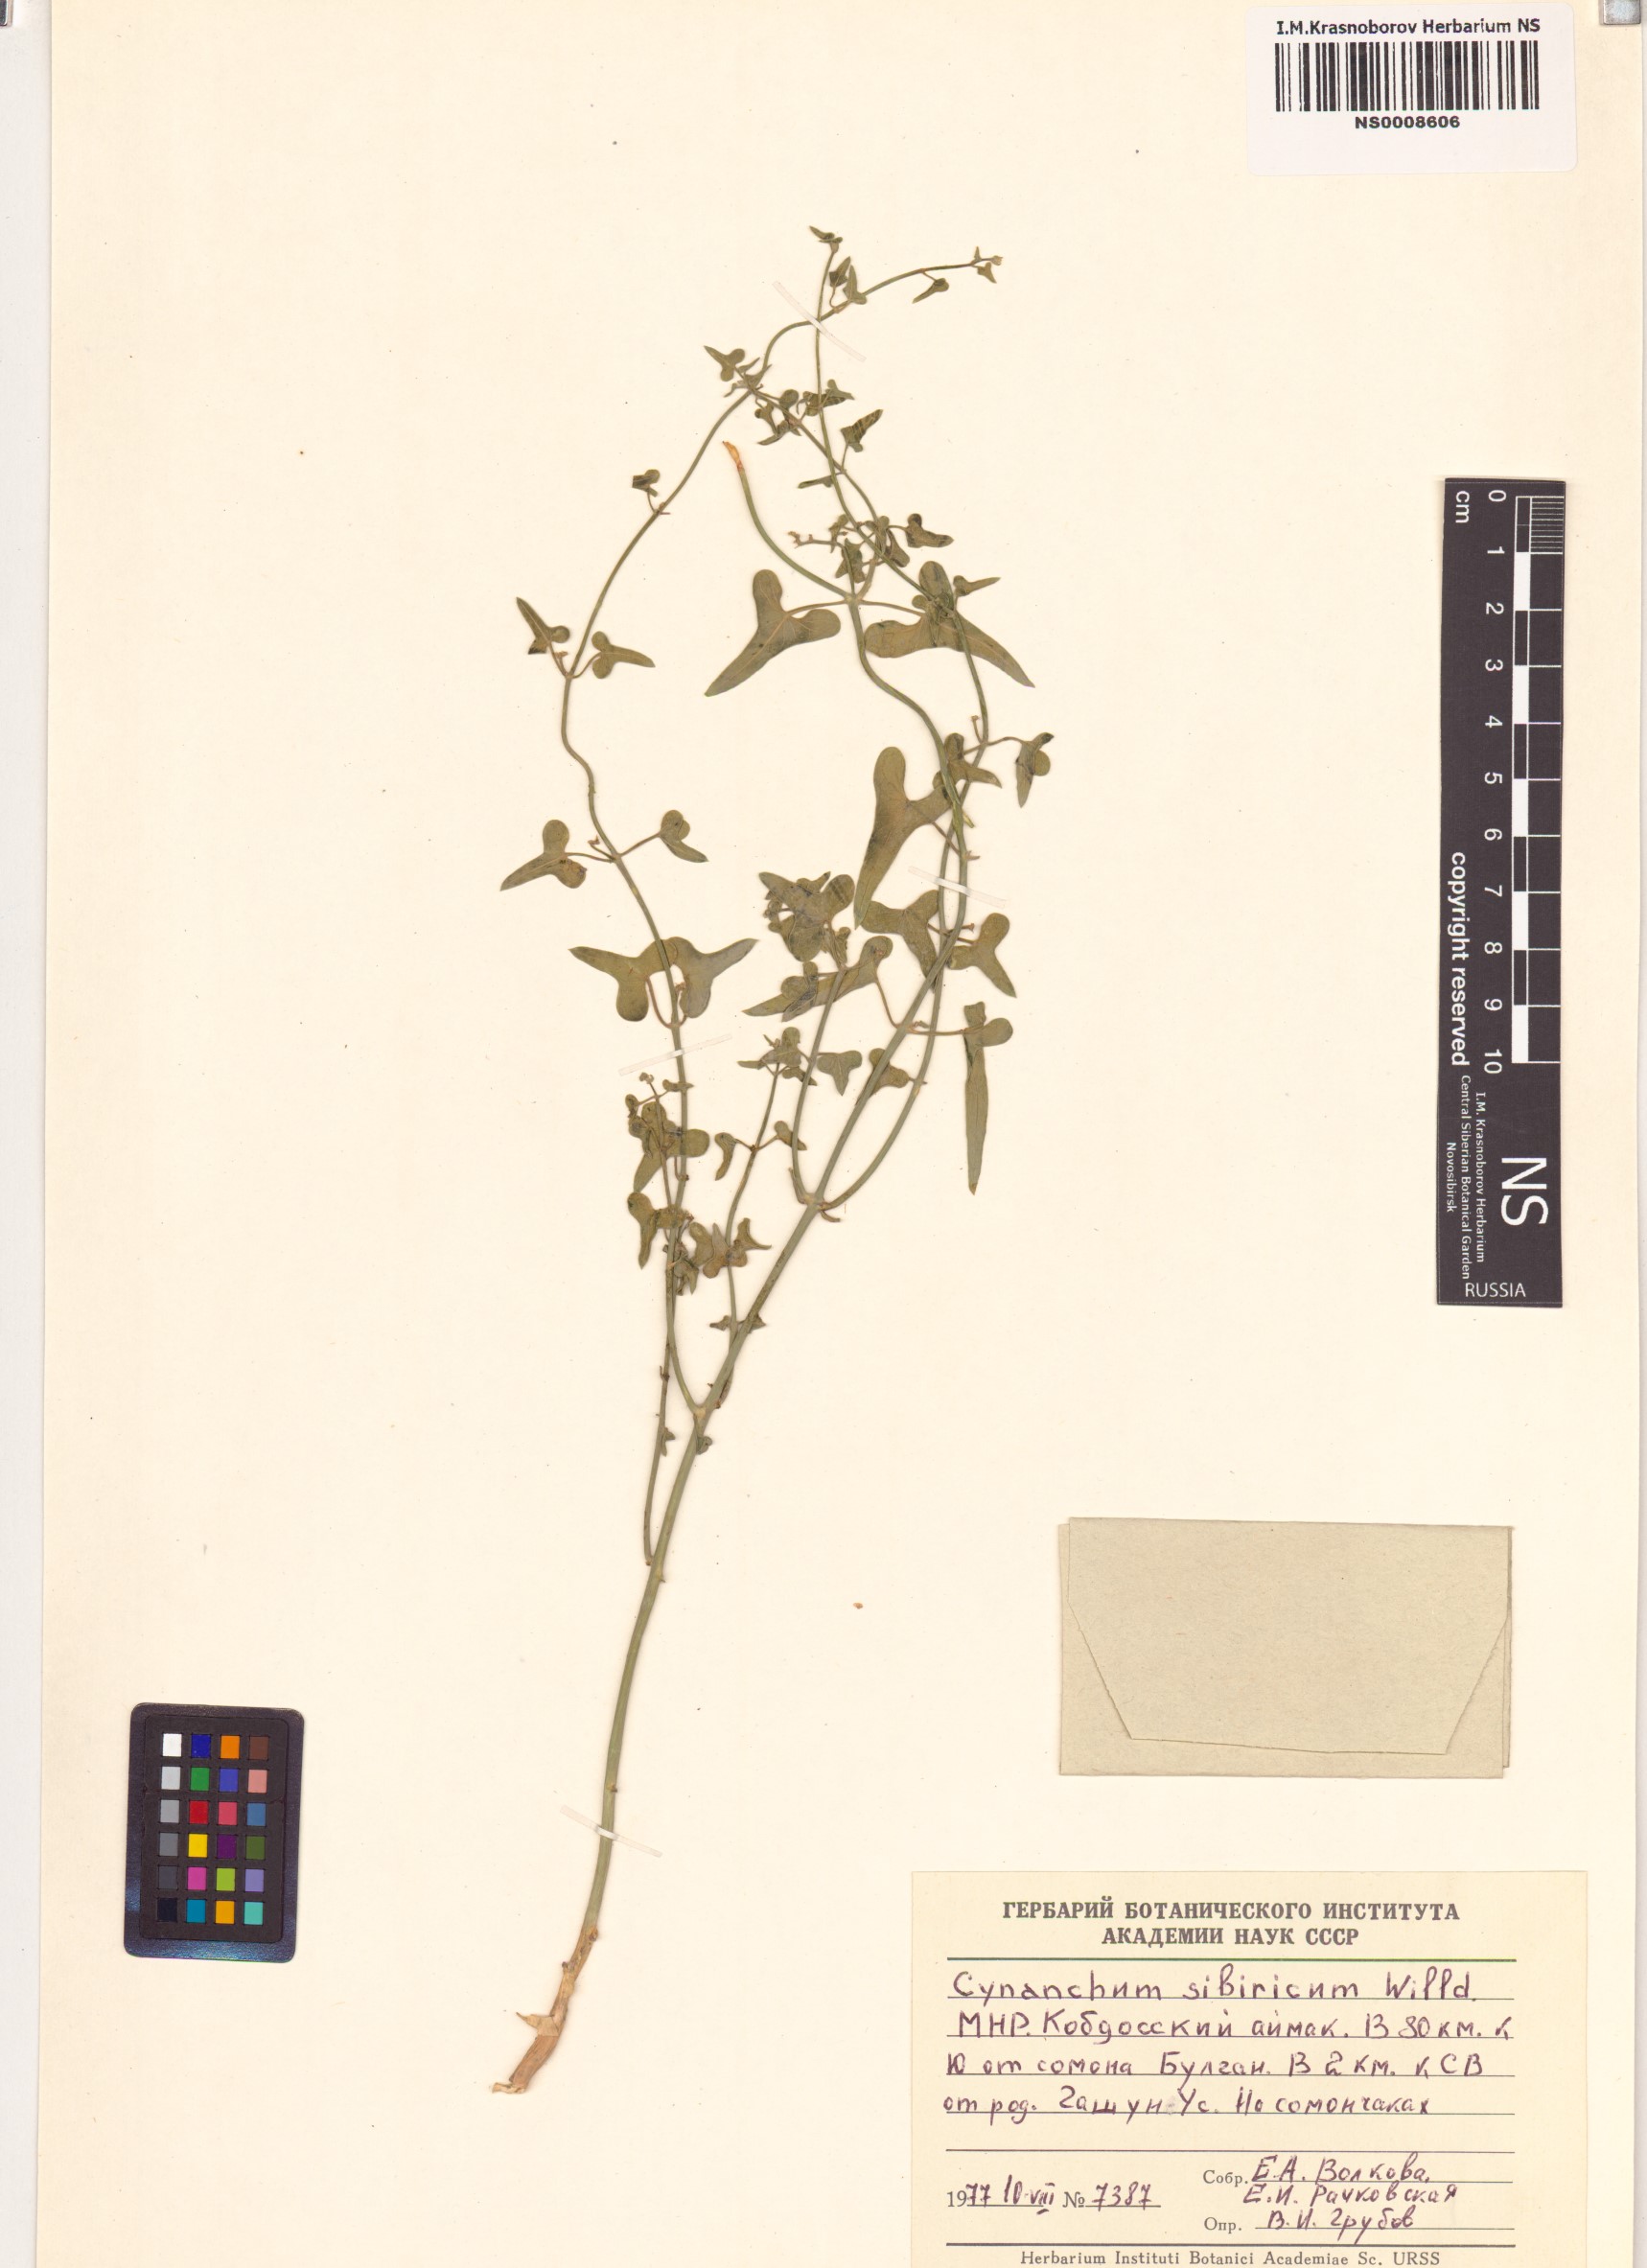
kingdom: Plantae
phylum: Tracheophyta
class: Magnoliopsida
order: Gentianales
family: Apocynaceae
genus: Cynanchum
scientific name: Cynanchum thesioides
